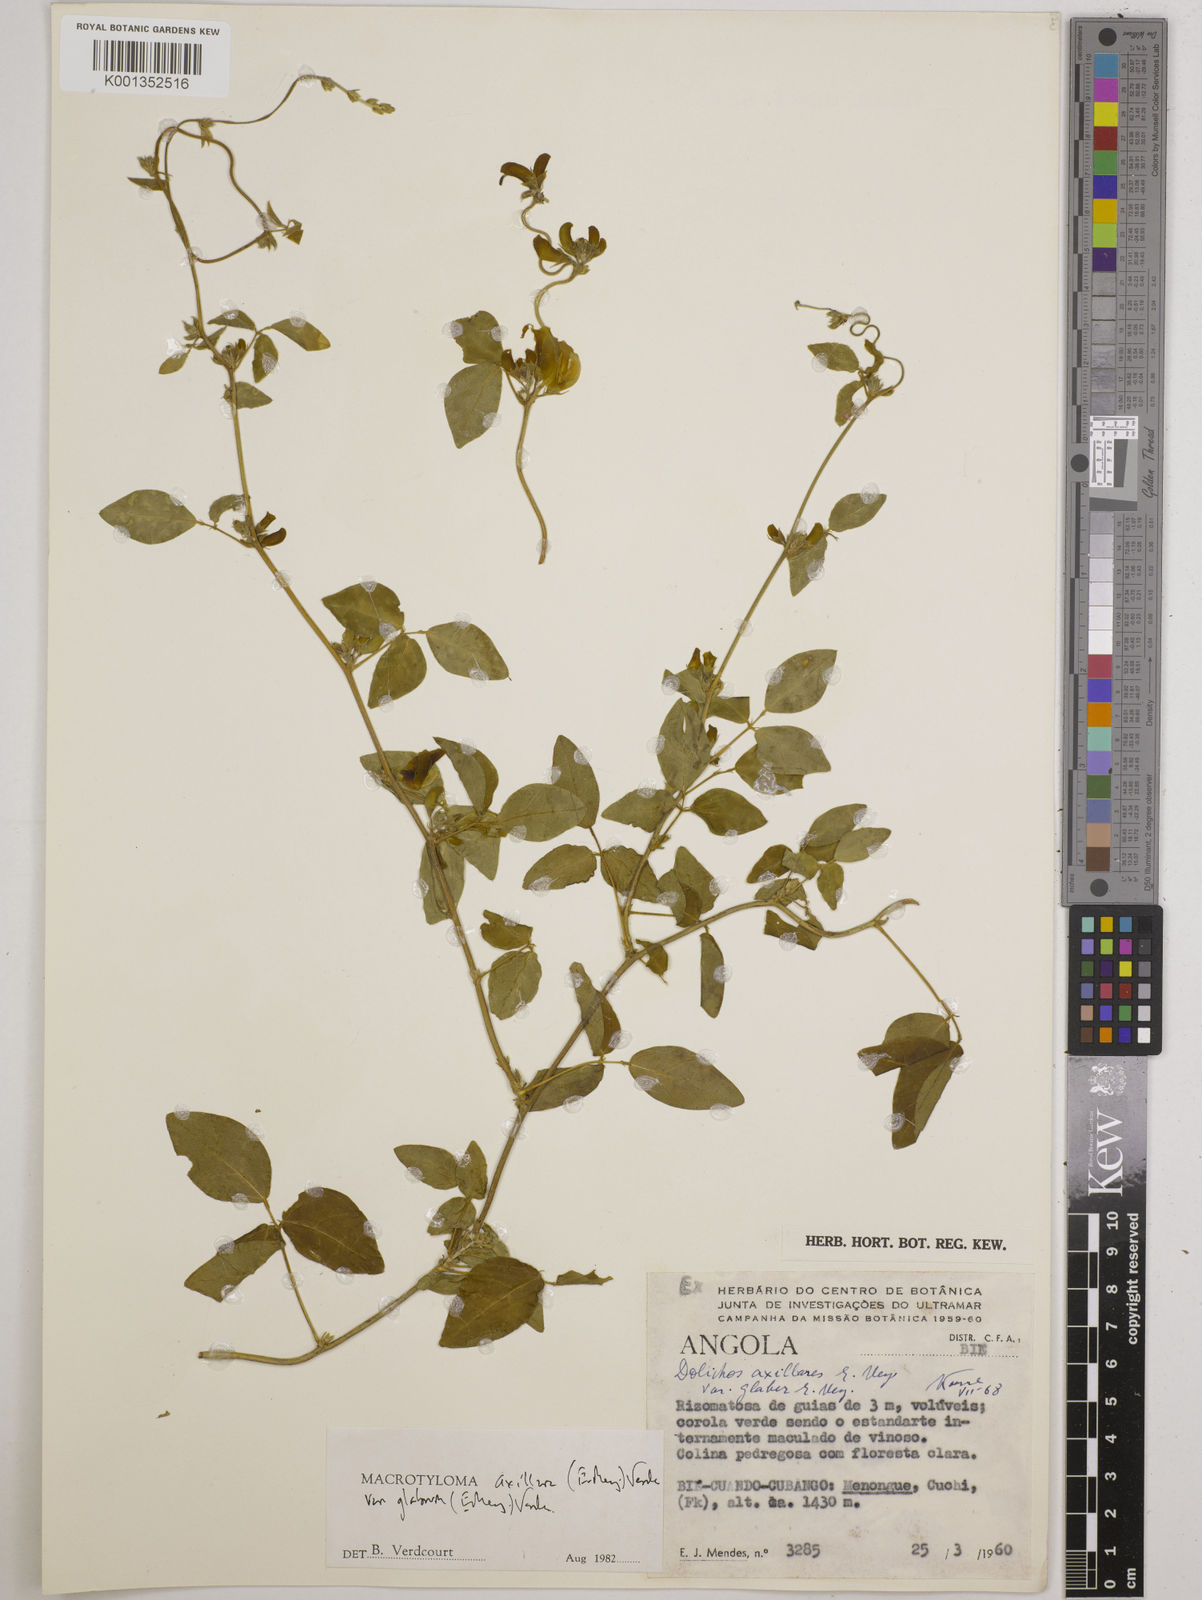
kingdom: Plantae
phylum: Tracheophyta
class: Magnoliopsida
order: Fabales
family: Fabaceae
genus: Macrotyloma
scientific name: Macrotyloma
